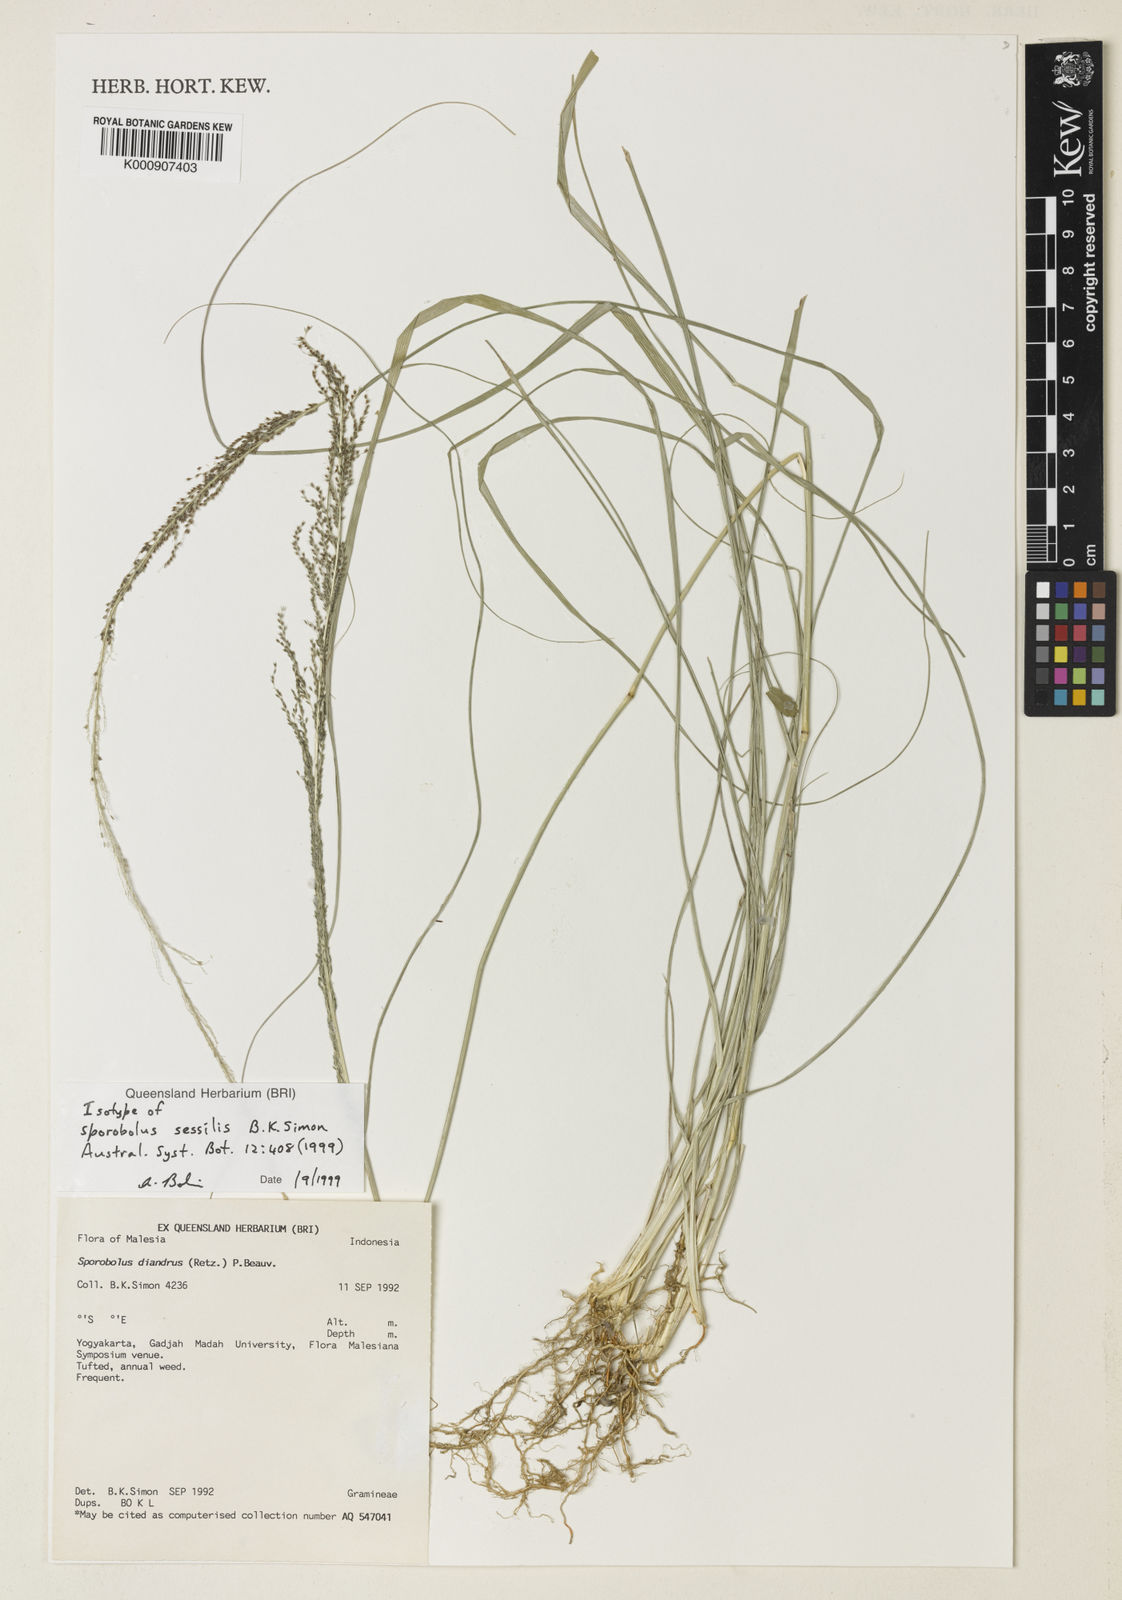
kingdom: Plantae
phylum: Tracheophyta
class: Liliopsida
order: Poales
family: Poaceae
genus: Sporobolus
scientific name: Sporobolus sessilis
